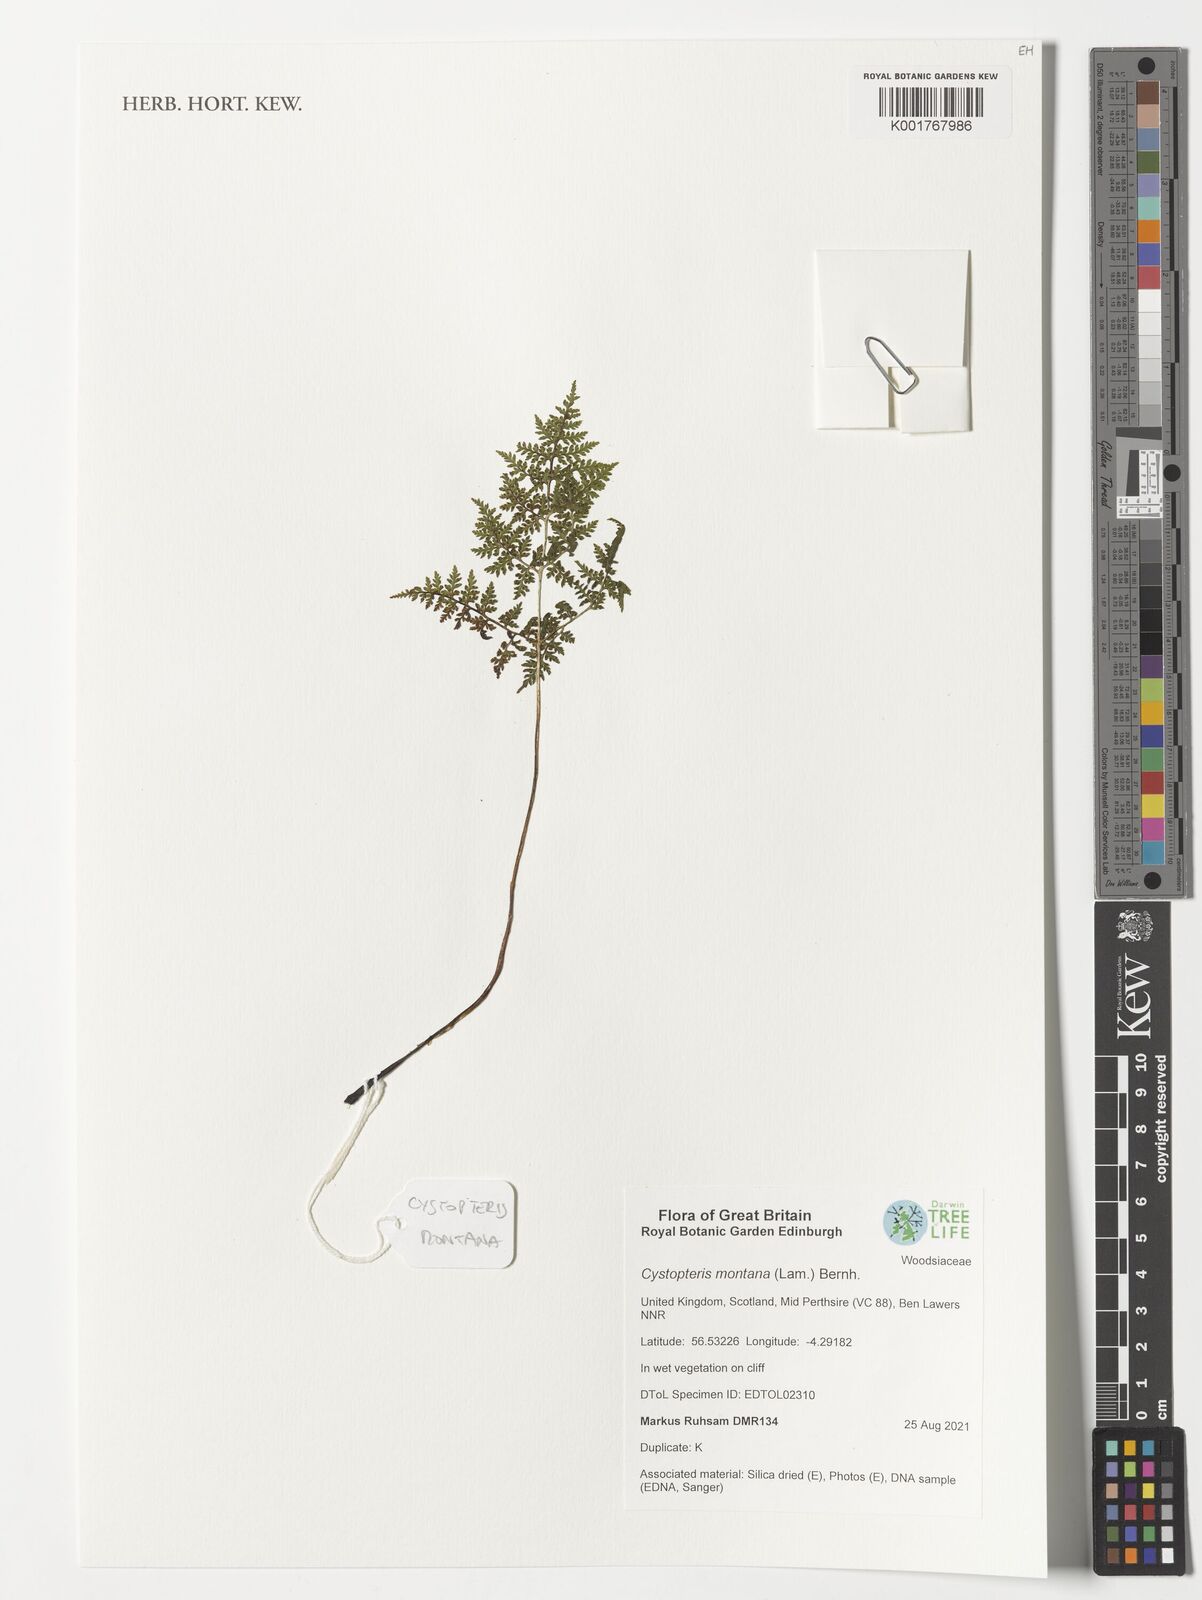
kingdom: Plantae
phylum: Tracheophyta
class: Polypodiopsida
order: Polypodiales
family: Cystopteridaceae
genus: Cystopteris
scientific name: Cystopteris montana
